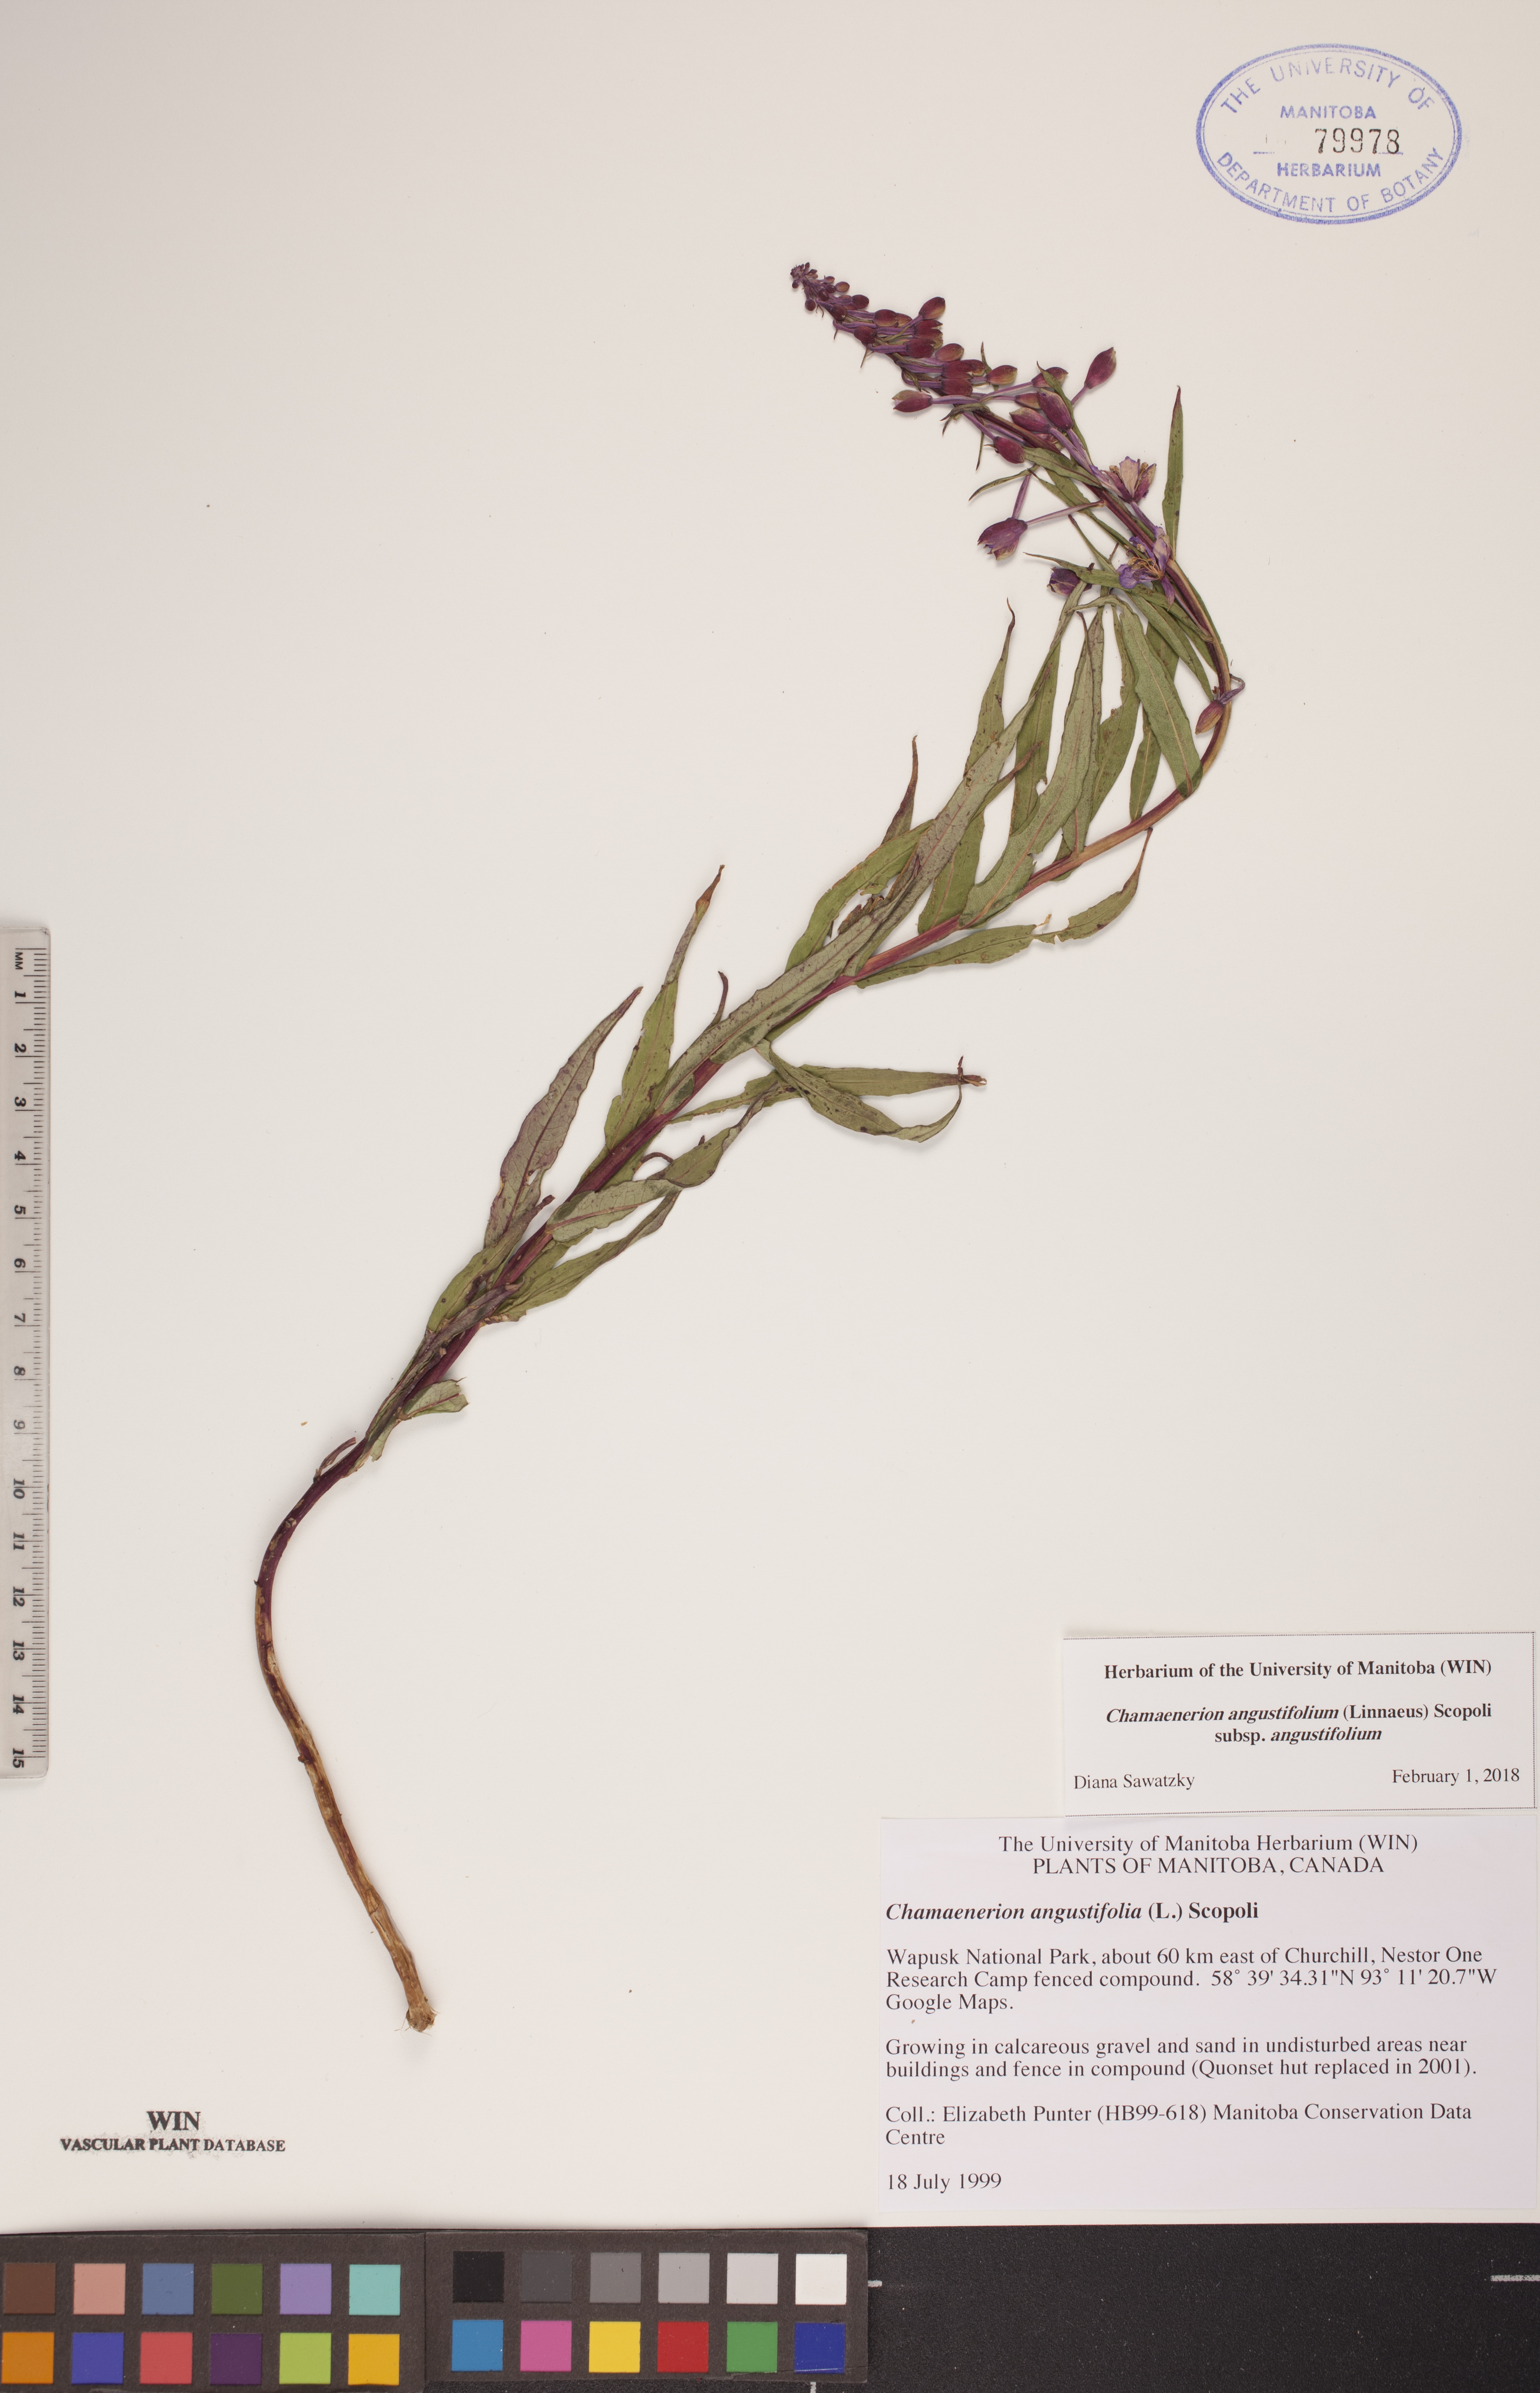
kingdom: Plantae
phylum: Tracheophyta
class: Magnoliopsida
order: Myrtales
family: Onagraceae
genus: Chamaenerion
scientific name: Chamaenerion angustifolium
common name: Fireweed
